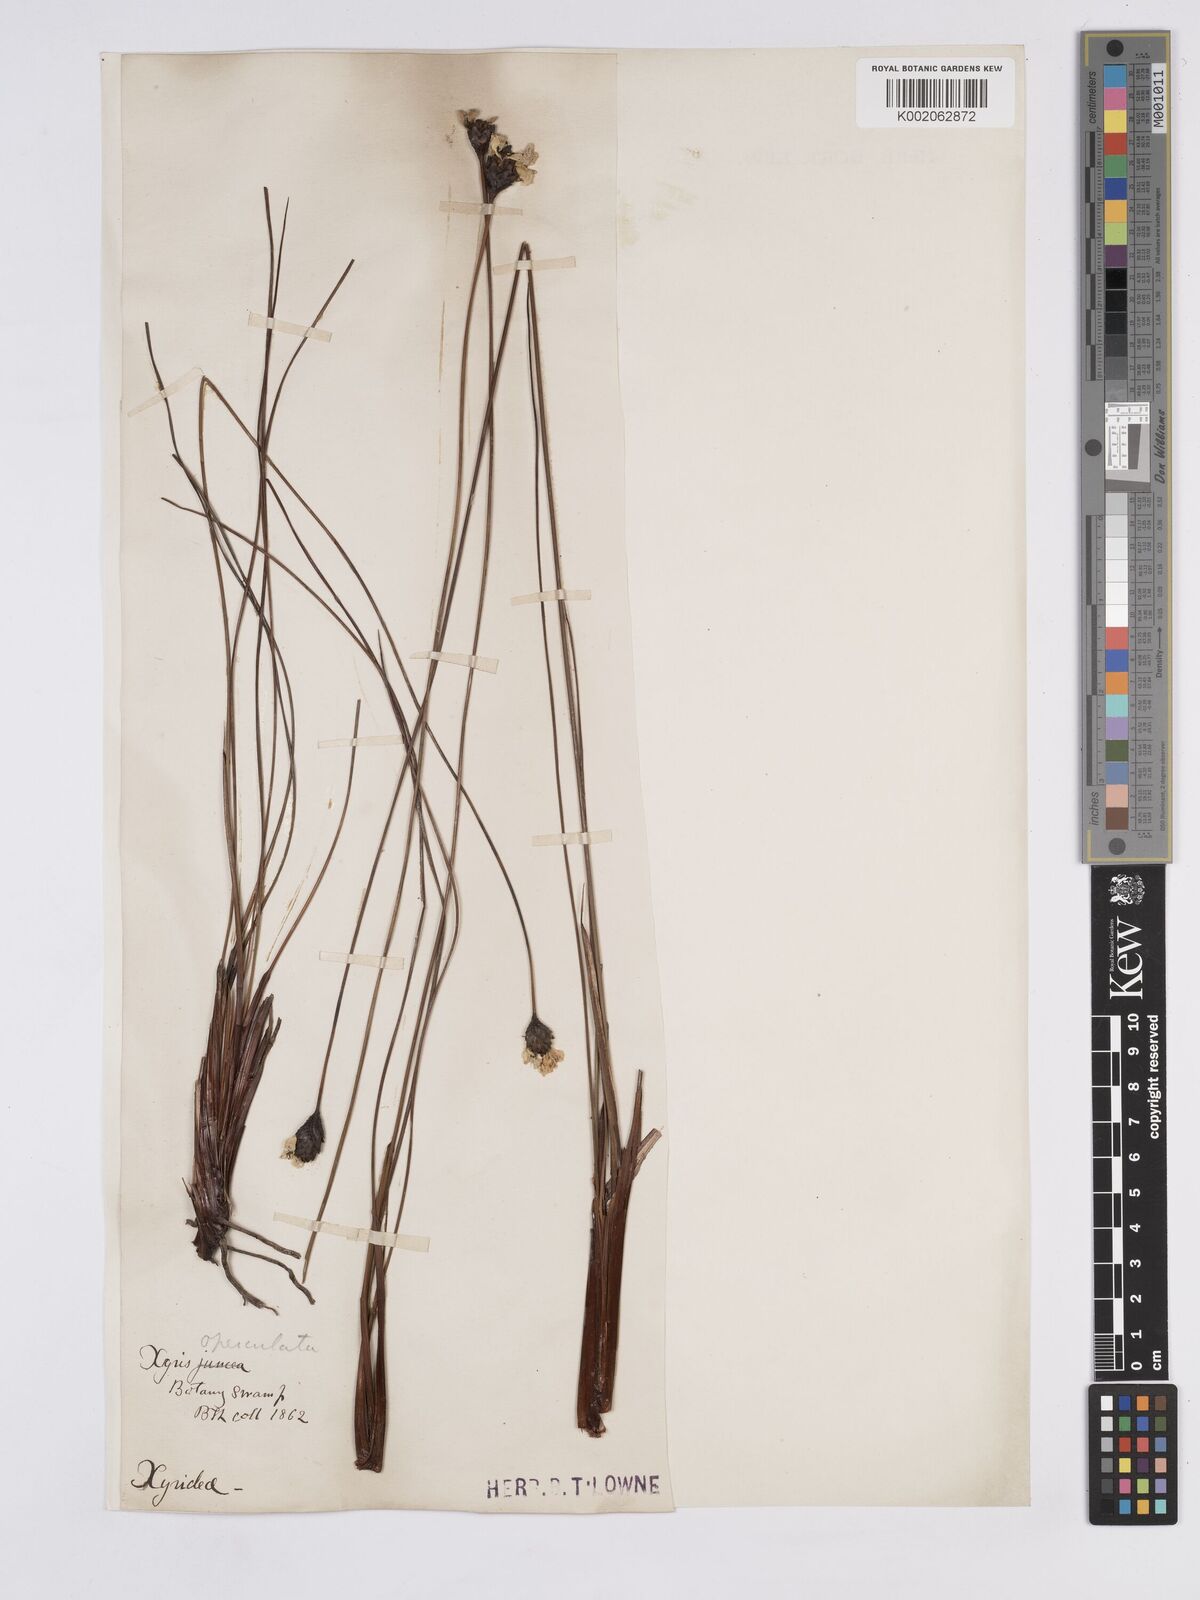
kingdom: Plantae
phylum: Tracheophyta
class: Liliopsida
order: Poales
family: Xyridaceae
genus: Xyris
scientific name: Xyris operculata
